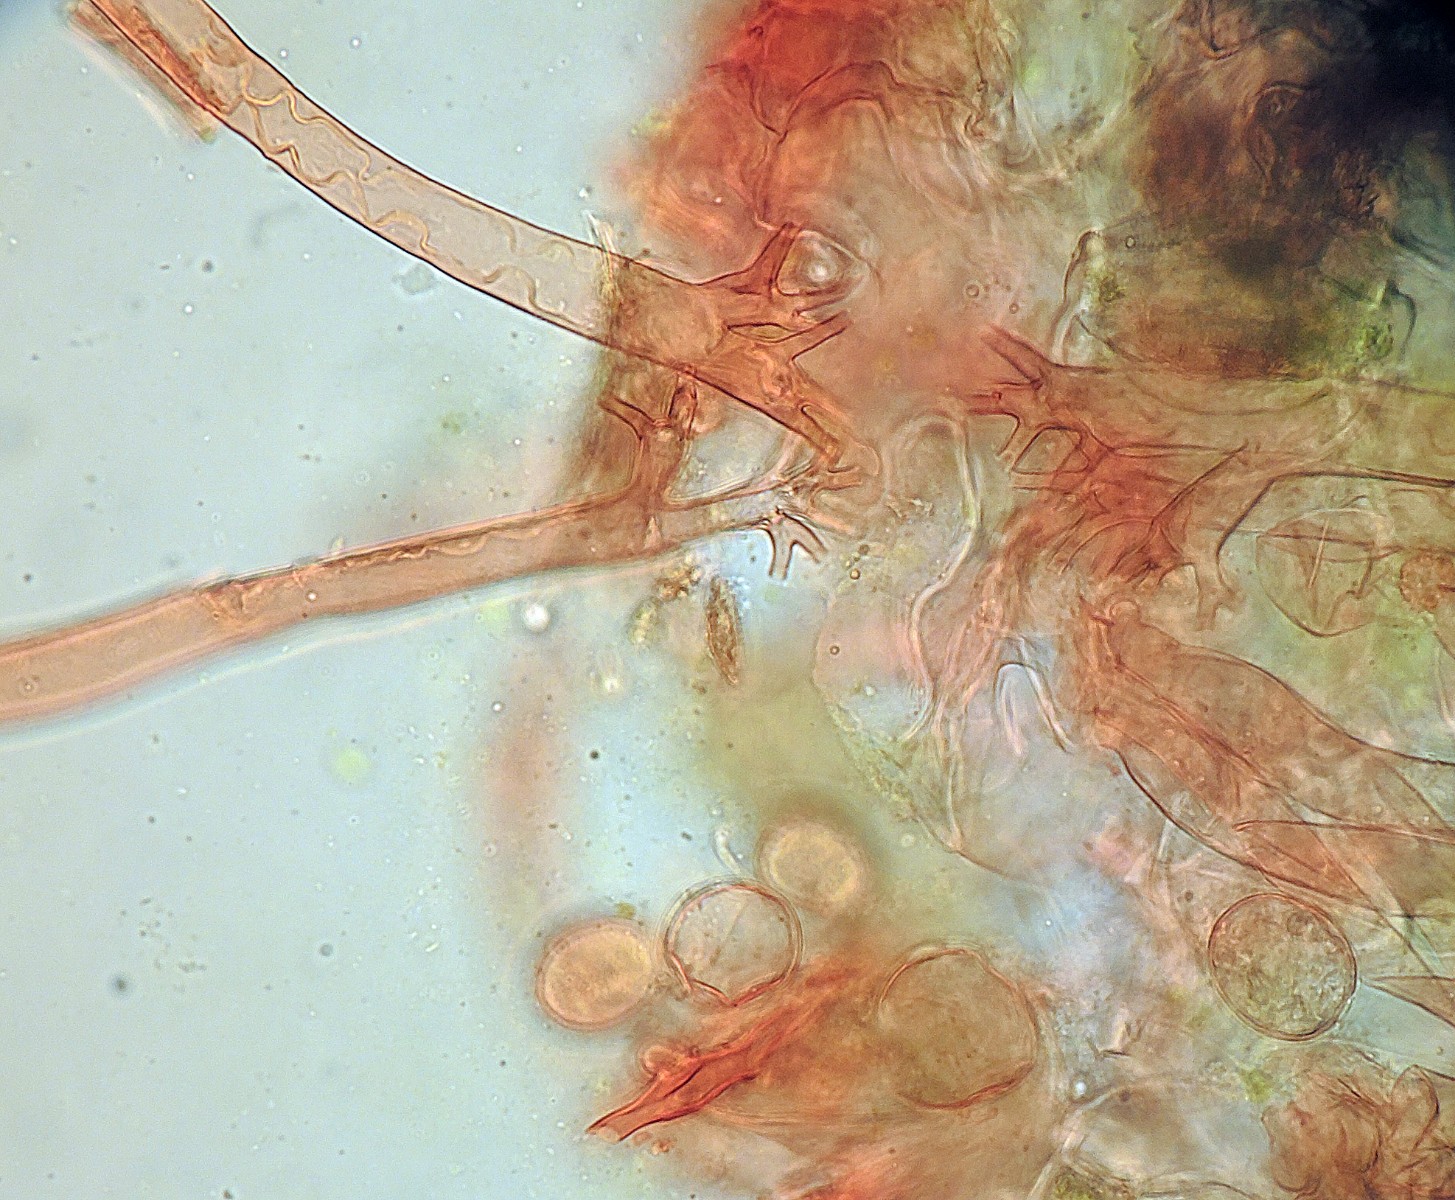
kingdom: Chromista
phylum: Oomycota
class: Peronosporea
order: Peronosporales
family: Peronosporaceae
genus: Plasmoverna
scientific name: Plasmoverna pygmaea
